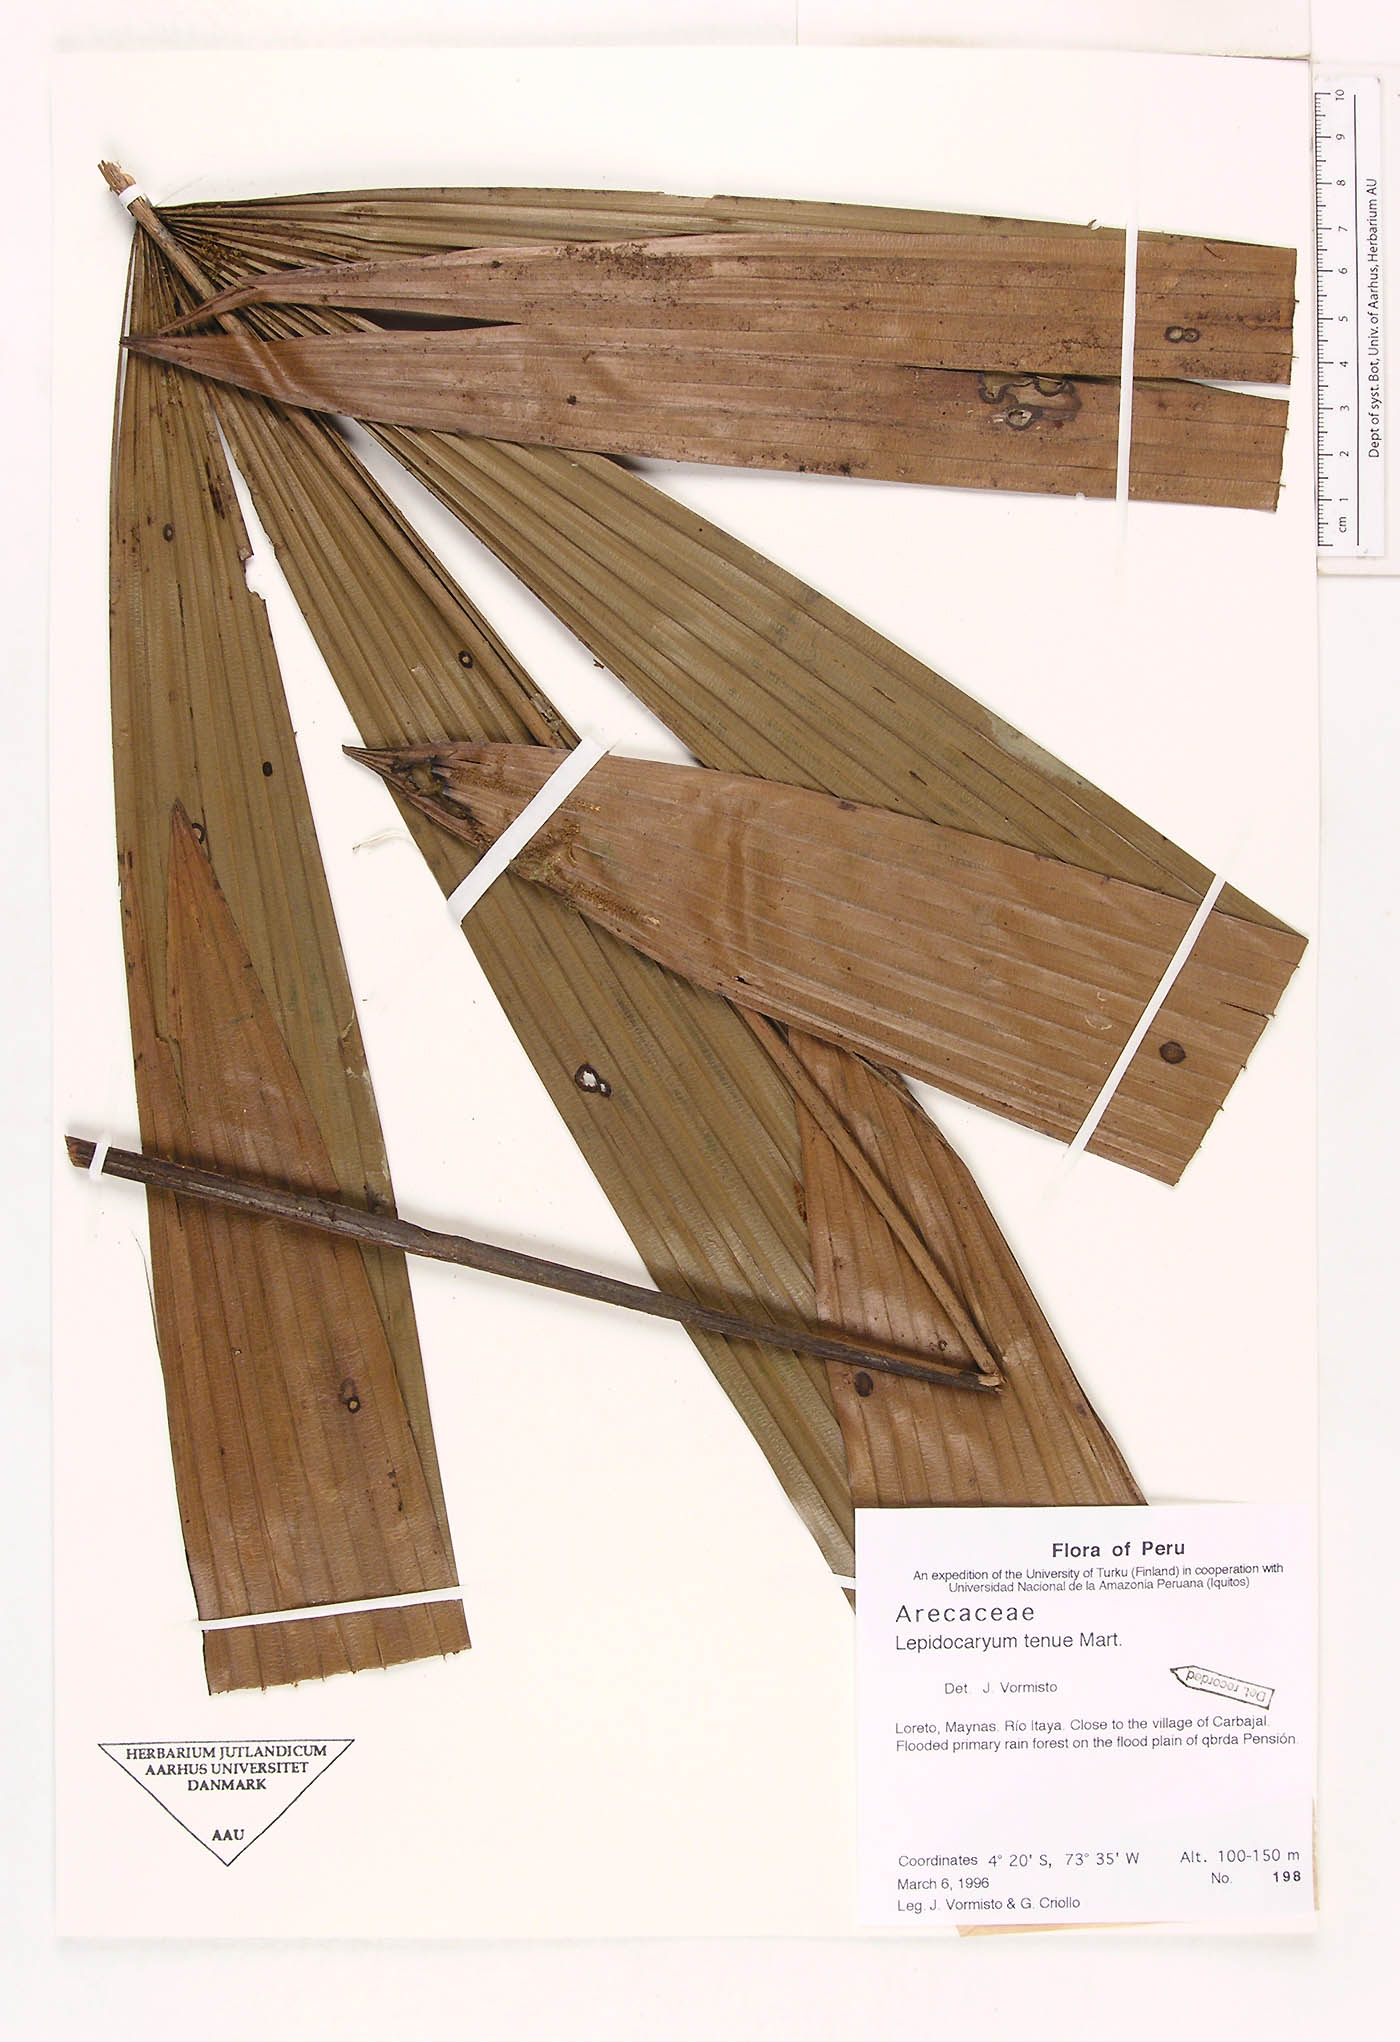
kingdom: Plantae
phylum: Tracheophyta
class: Liliopsida
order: Arecales
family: Arecaceae
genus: Lepidocaryum
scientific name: Lepidocaryum tenue
